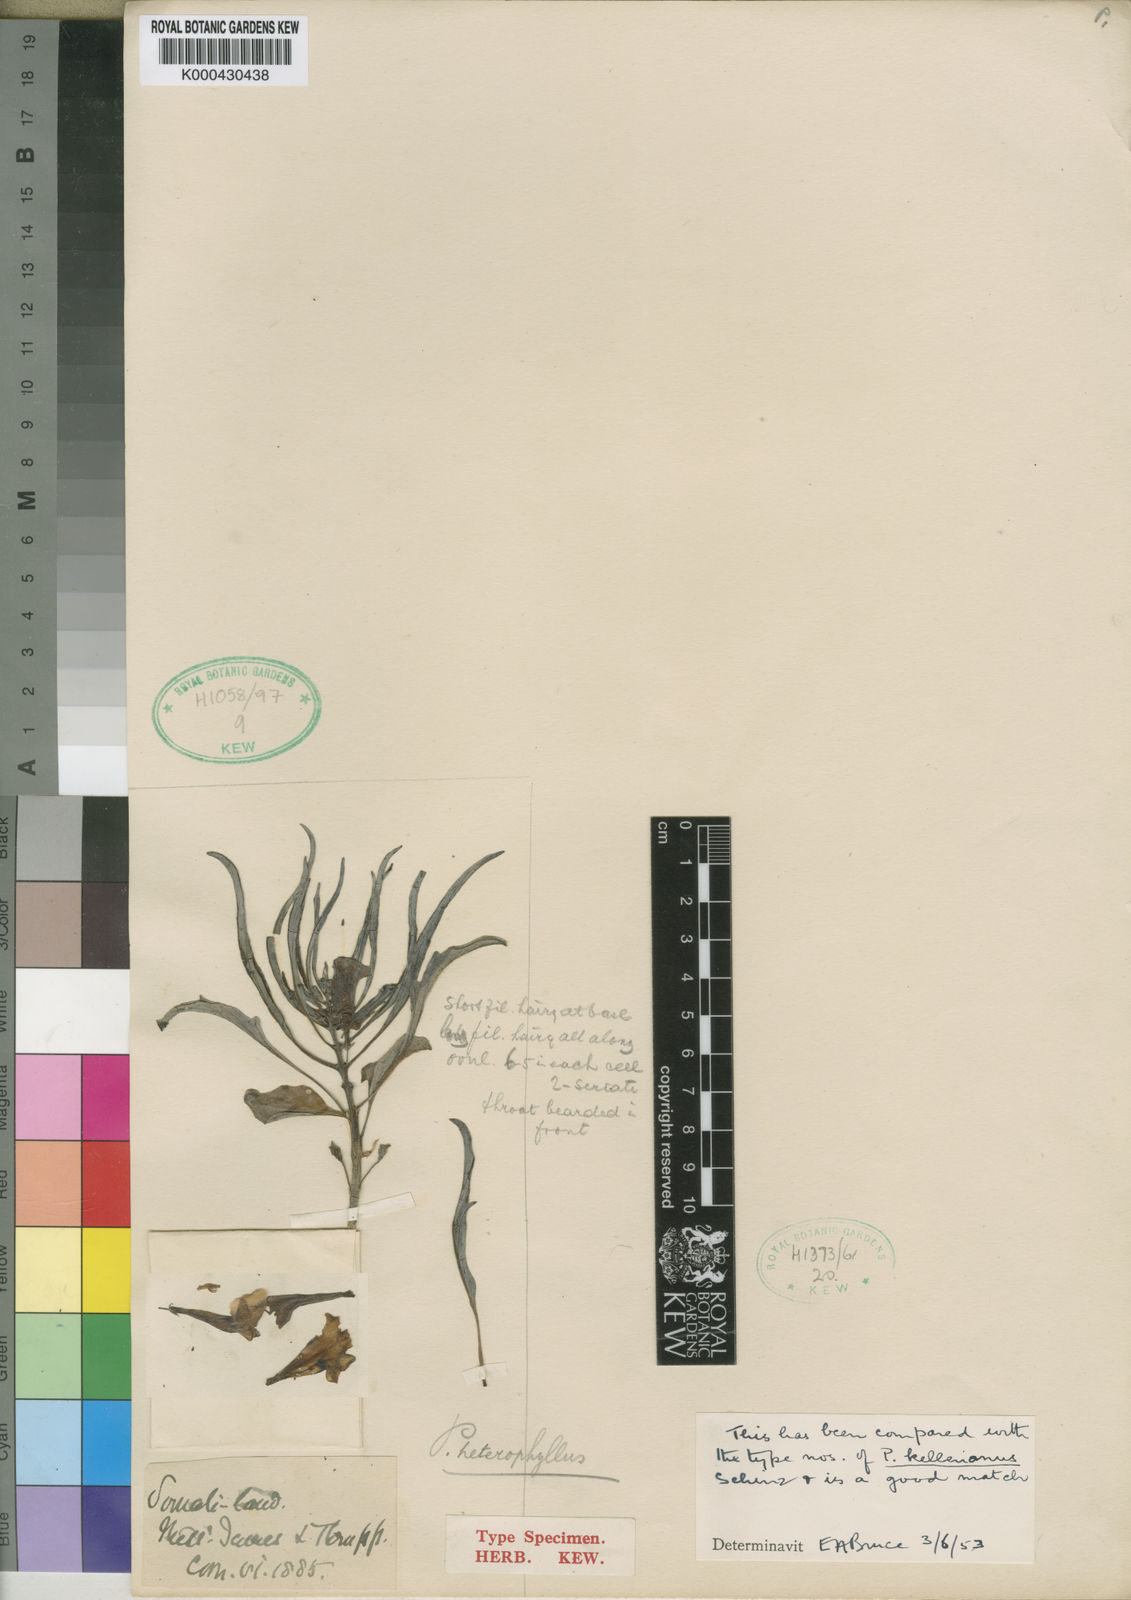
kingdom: Plantae
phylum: Tracheophyta
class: Magnoliopsida
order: Lamiales
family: Pedaliaceae
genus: Pterodiscus
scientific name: Pterodiscus saccatus
